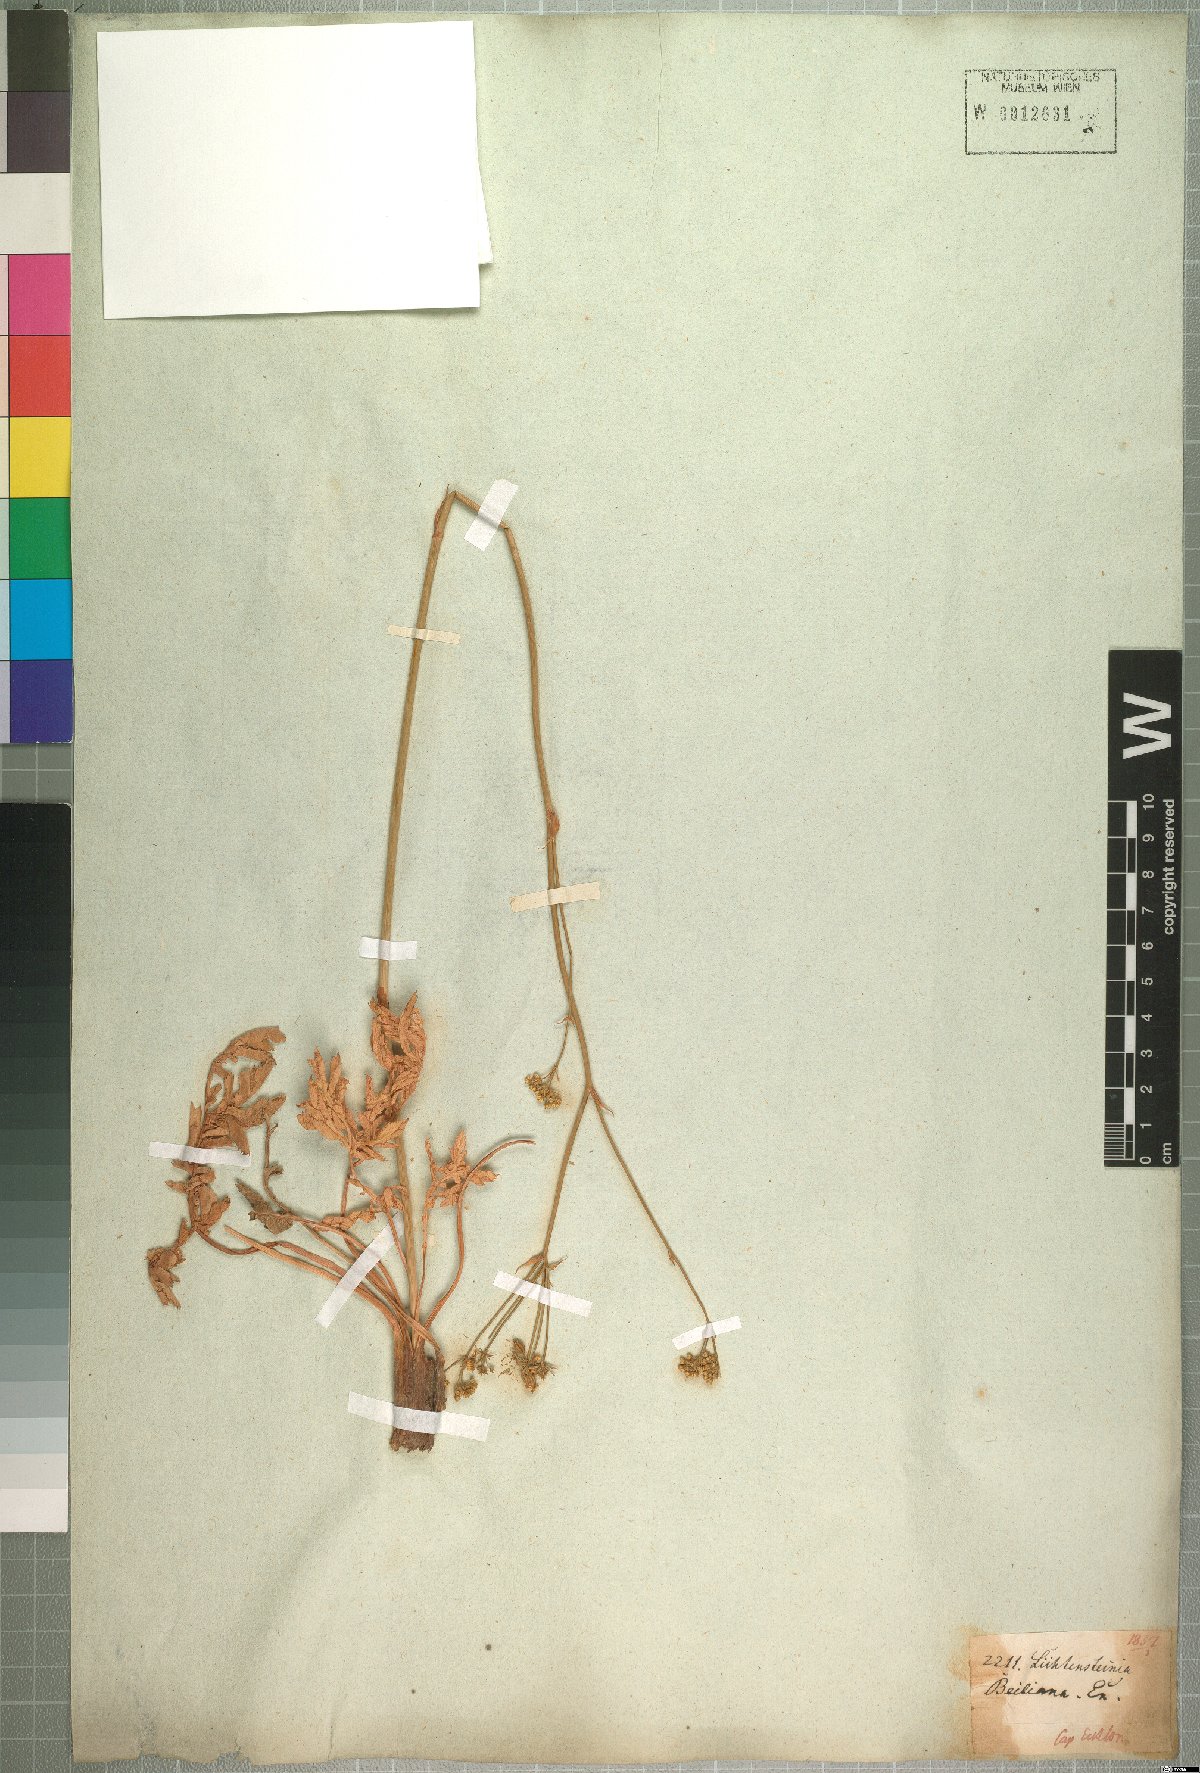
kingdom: Plantae
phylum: Tracheophyta
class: Magnoliopsida
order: Apiales
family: Apiaceae
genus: Lichtensteinia
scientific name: Lichtensteinia obscura
